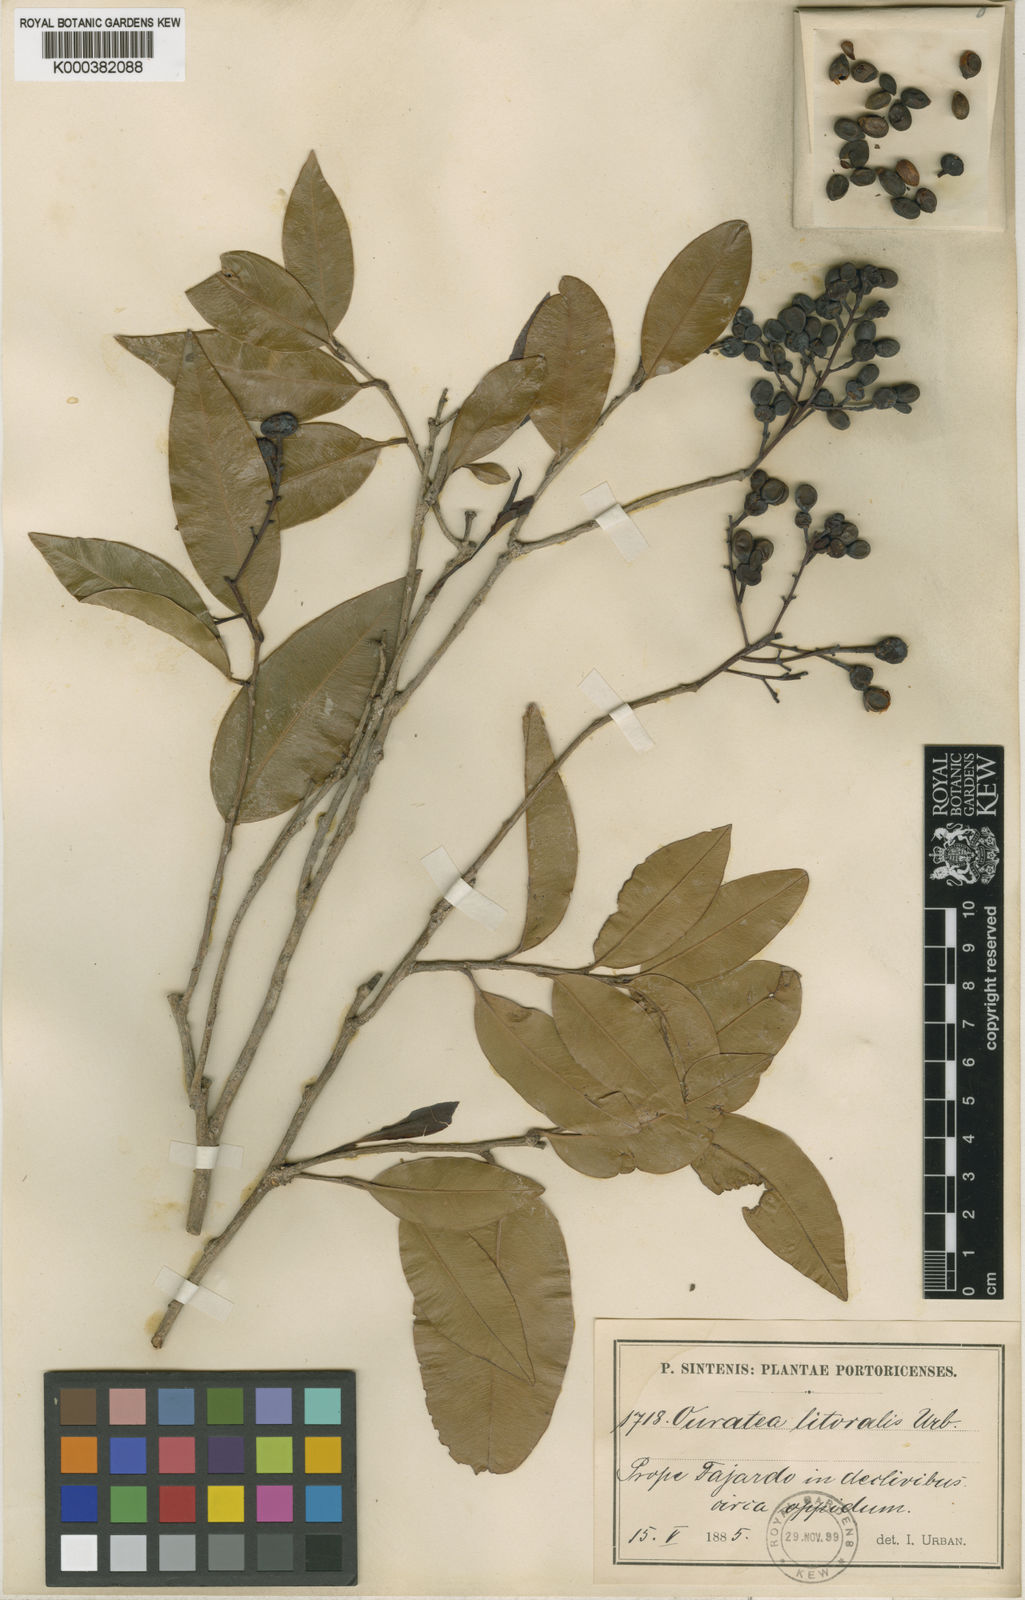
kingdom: Plantae
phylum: Tracheophyta
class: Magnoliopsida
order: Malpighiales
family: Ochnaceae
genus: Ouratea
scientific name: Ouratea litoralis
